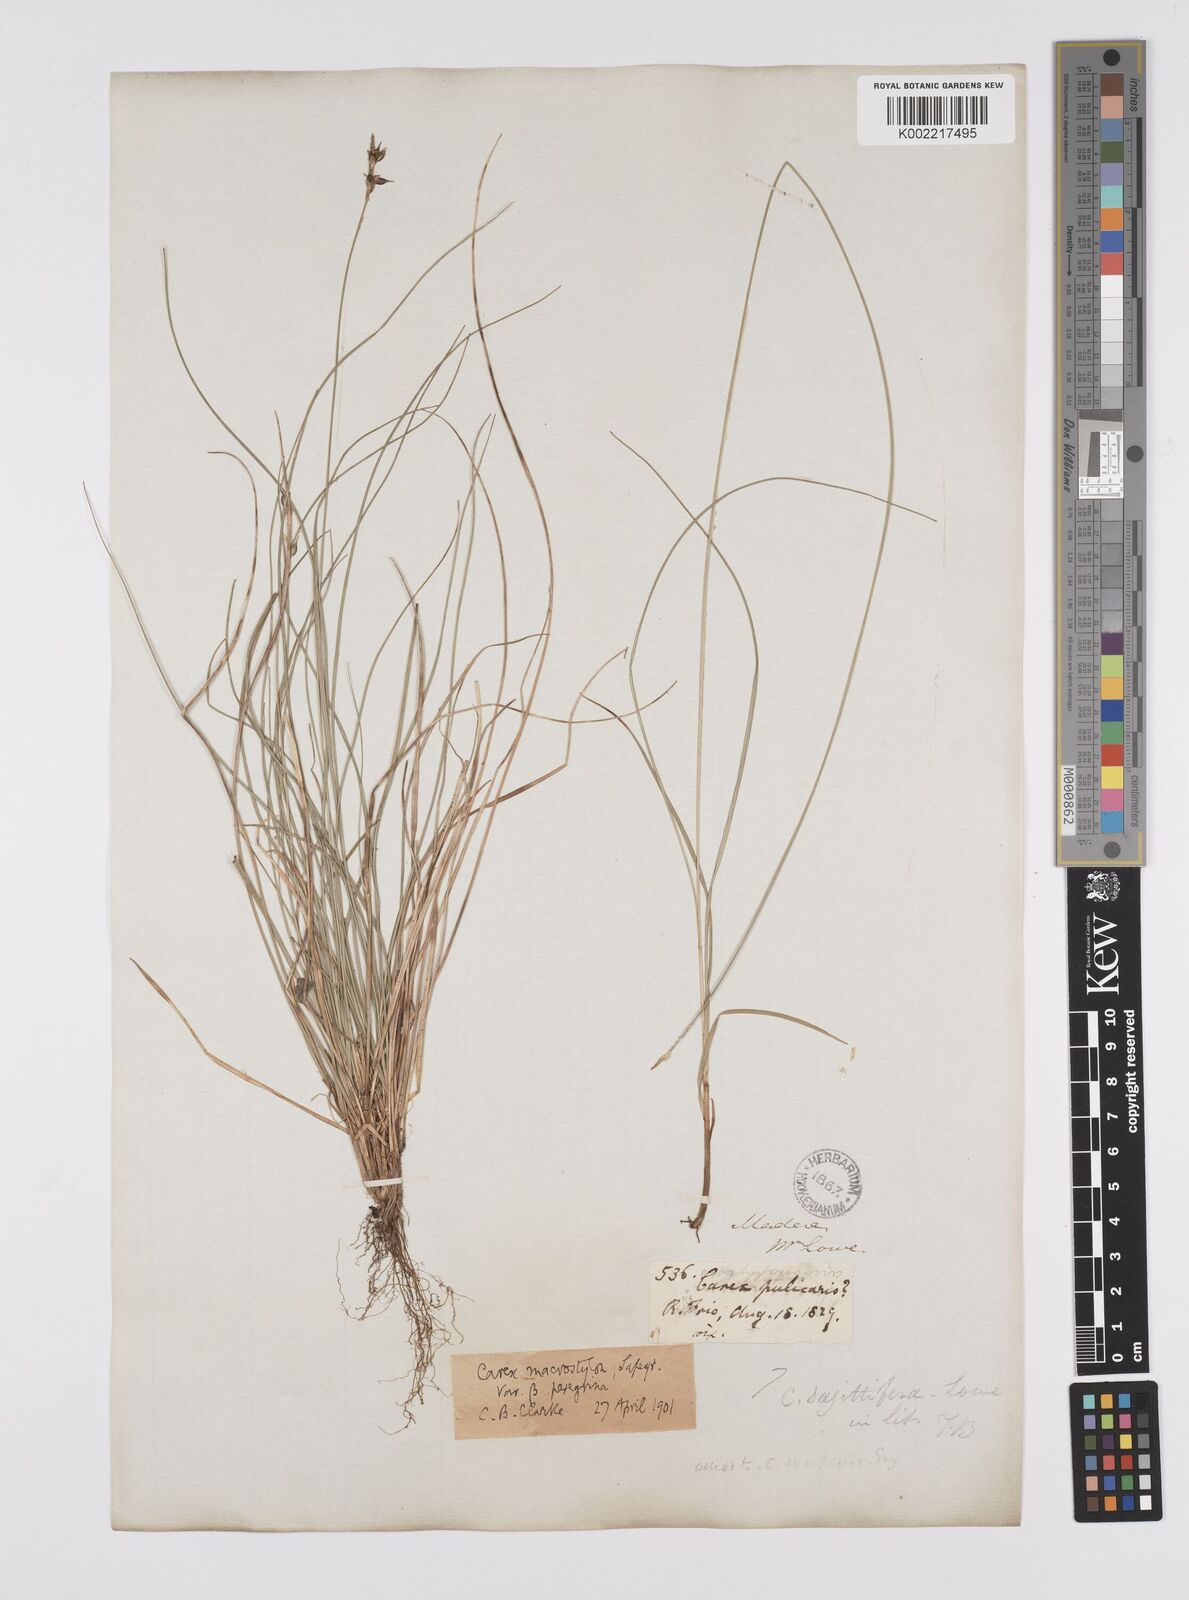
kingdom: Plantae
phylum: Tracheophyta
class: Liliopsida
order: Poales
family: Cyperaceae
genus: Carex
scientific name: Carex peregrina
